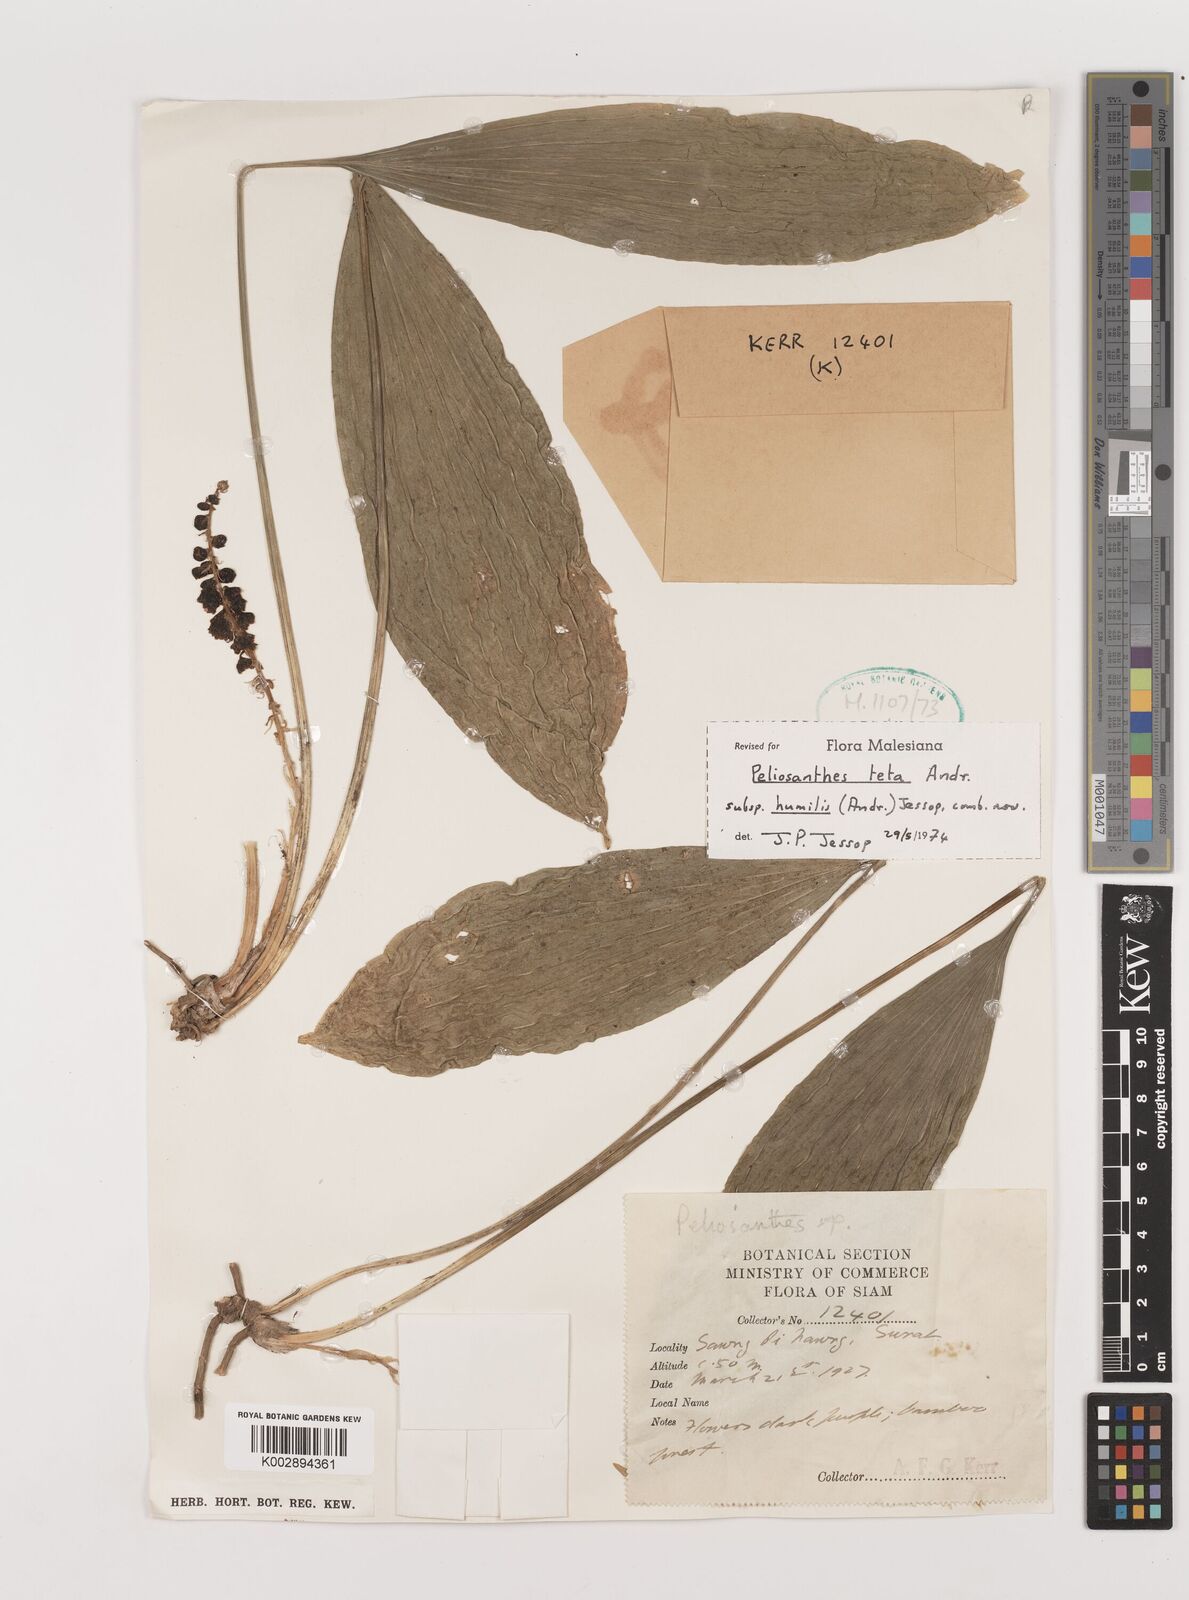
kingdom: Plantae
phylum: Tracheophyta
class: Liliopsida
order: Asparagales
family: Asparagaceae
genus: Peliosanthes
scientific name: Peliosanthes teta
